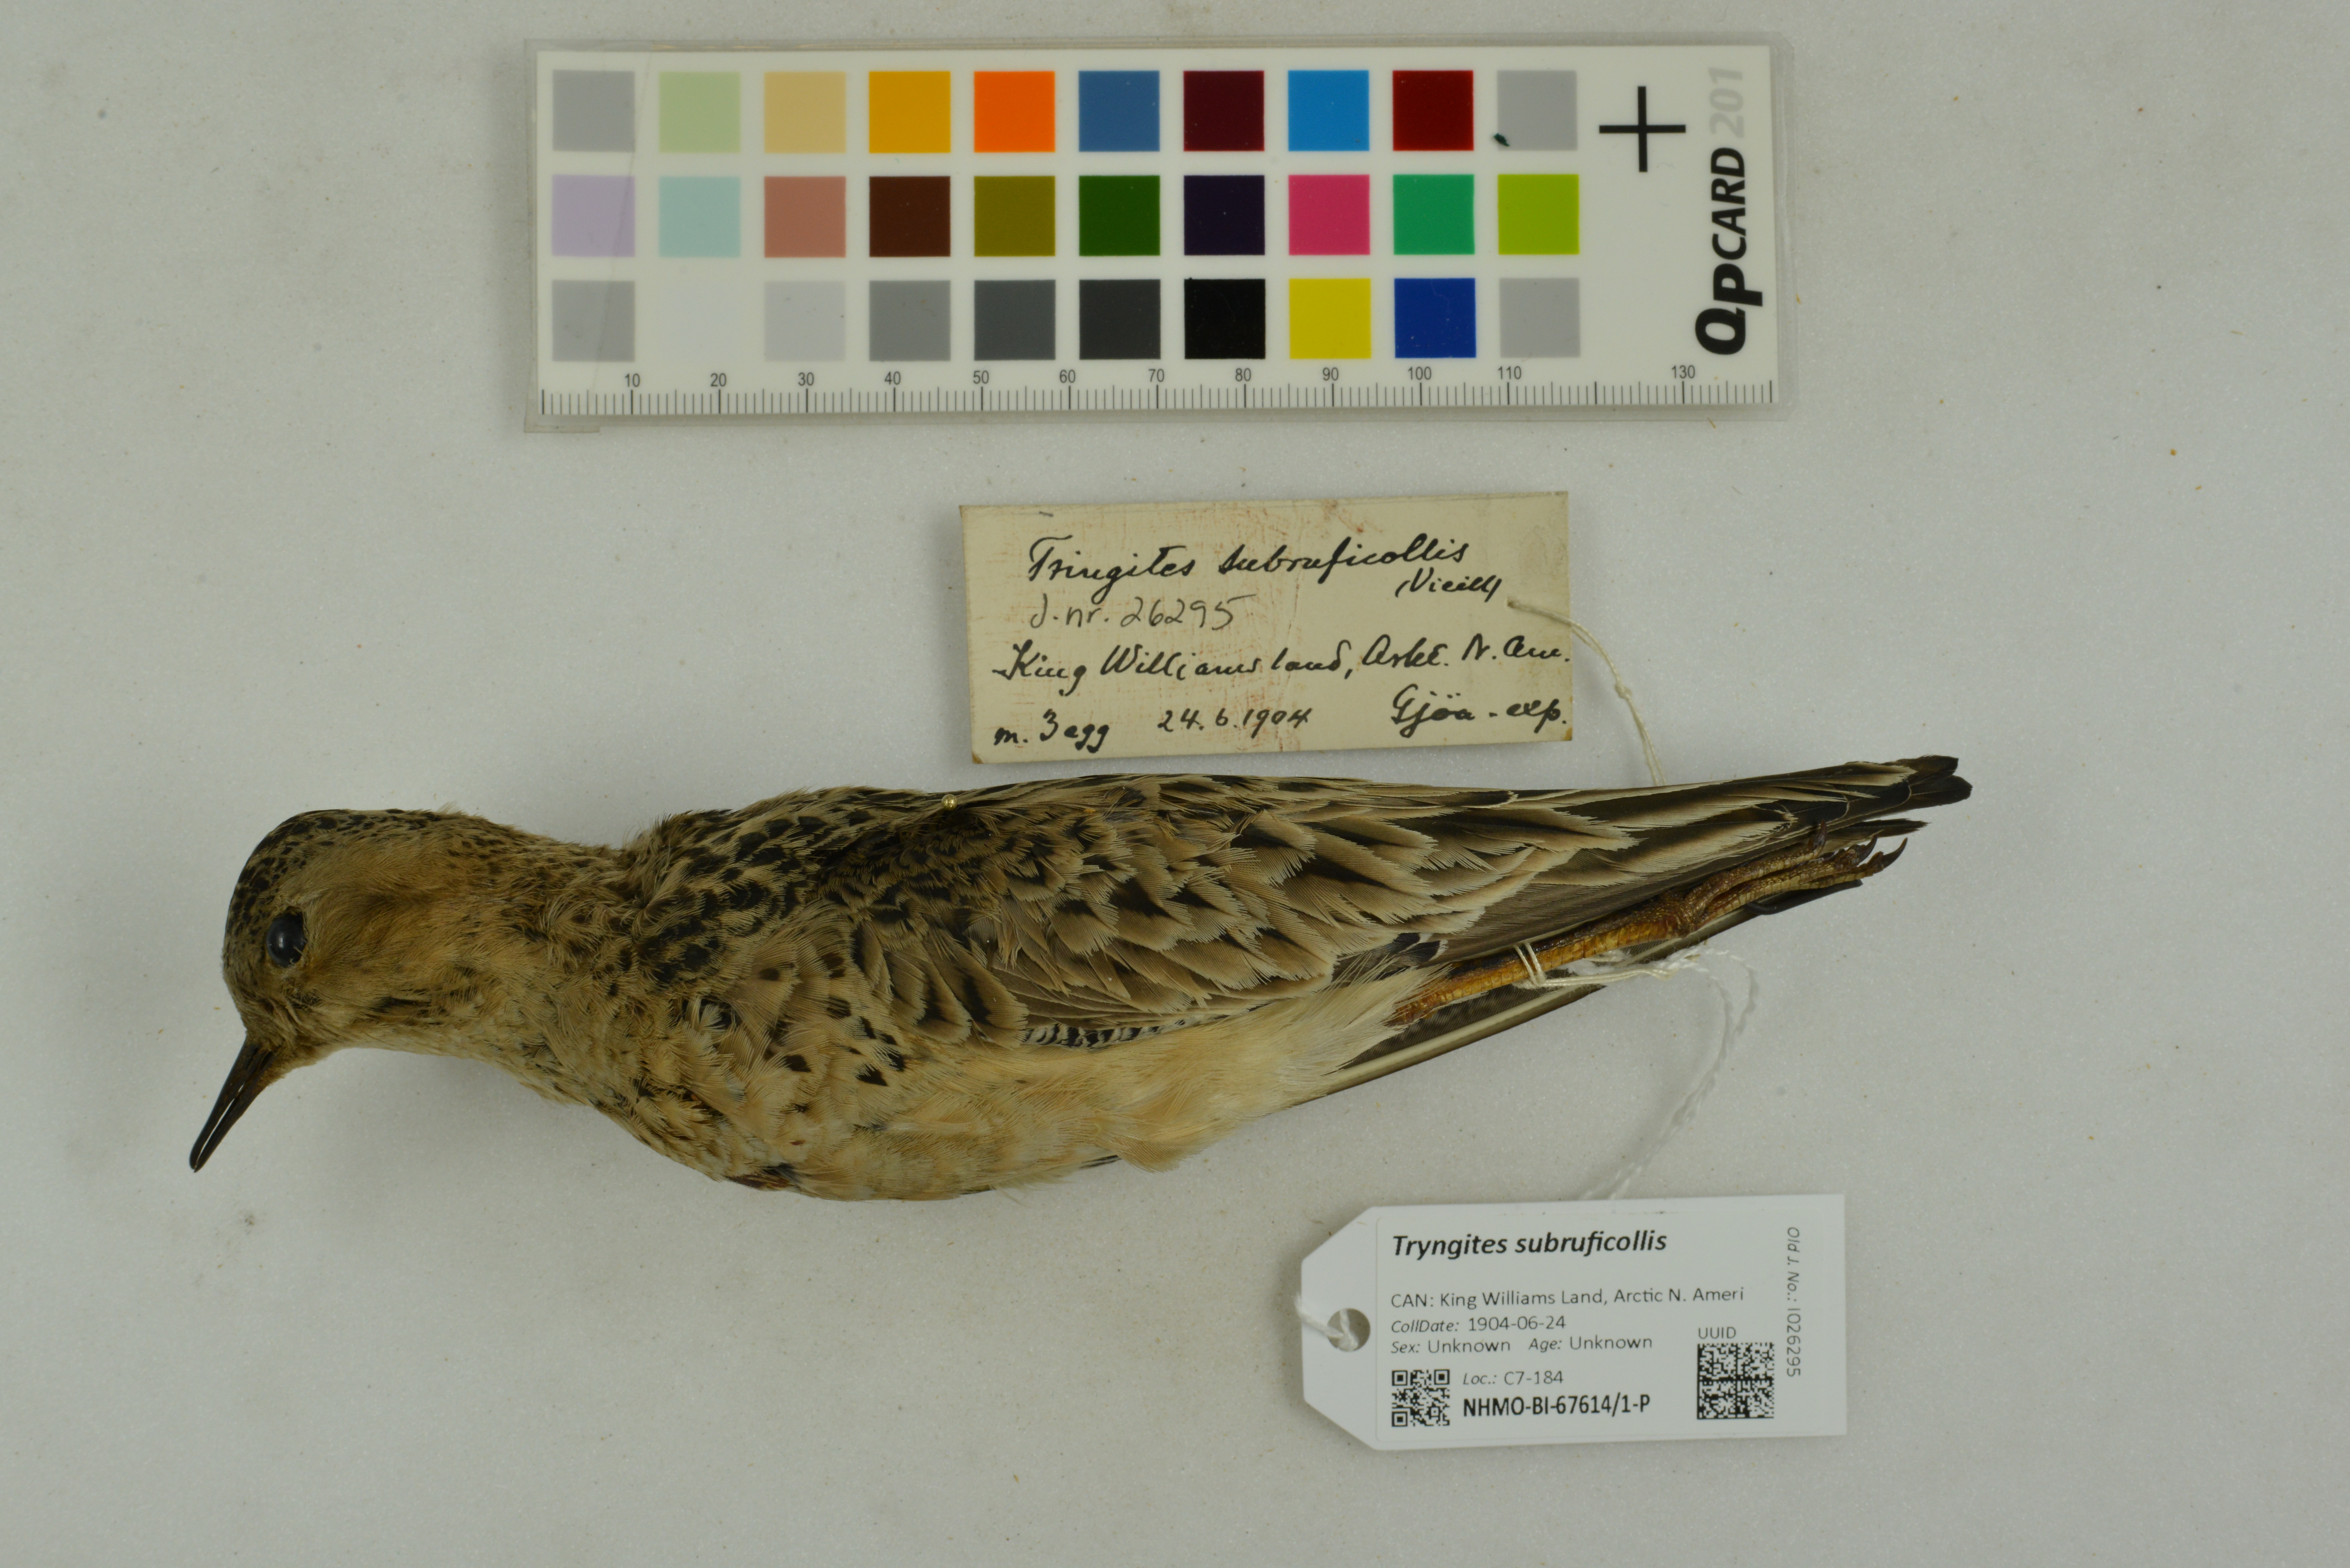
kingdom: Animalia
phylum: Chordata
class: Aves
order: Charadriiformes
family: Scolopacidae
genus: Calidris
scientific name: Calidris subruficollis
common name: Buff-breasted sandpiper
